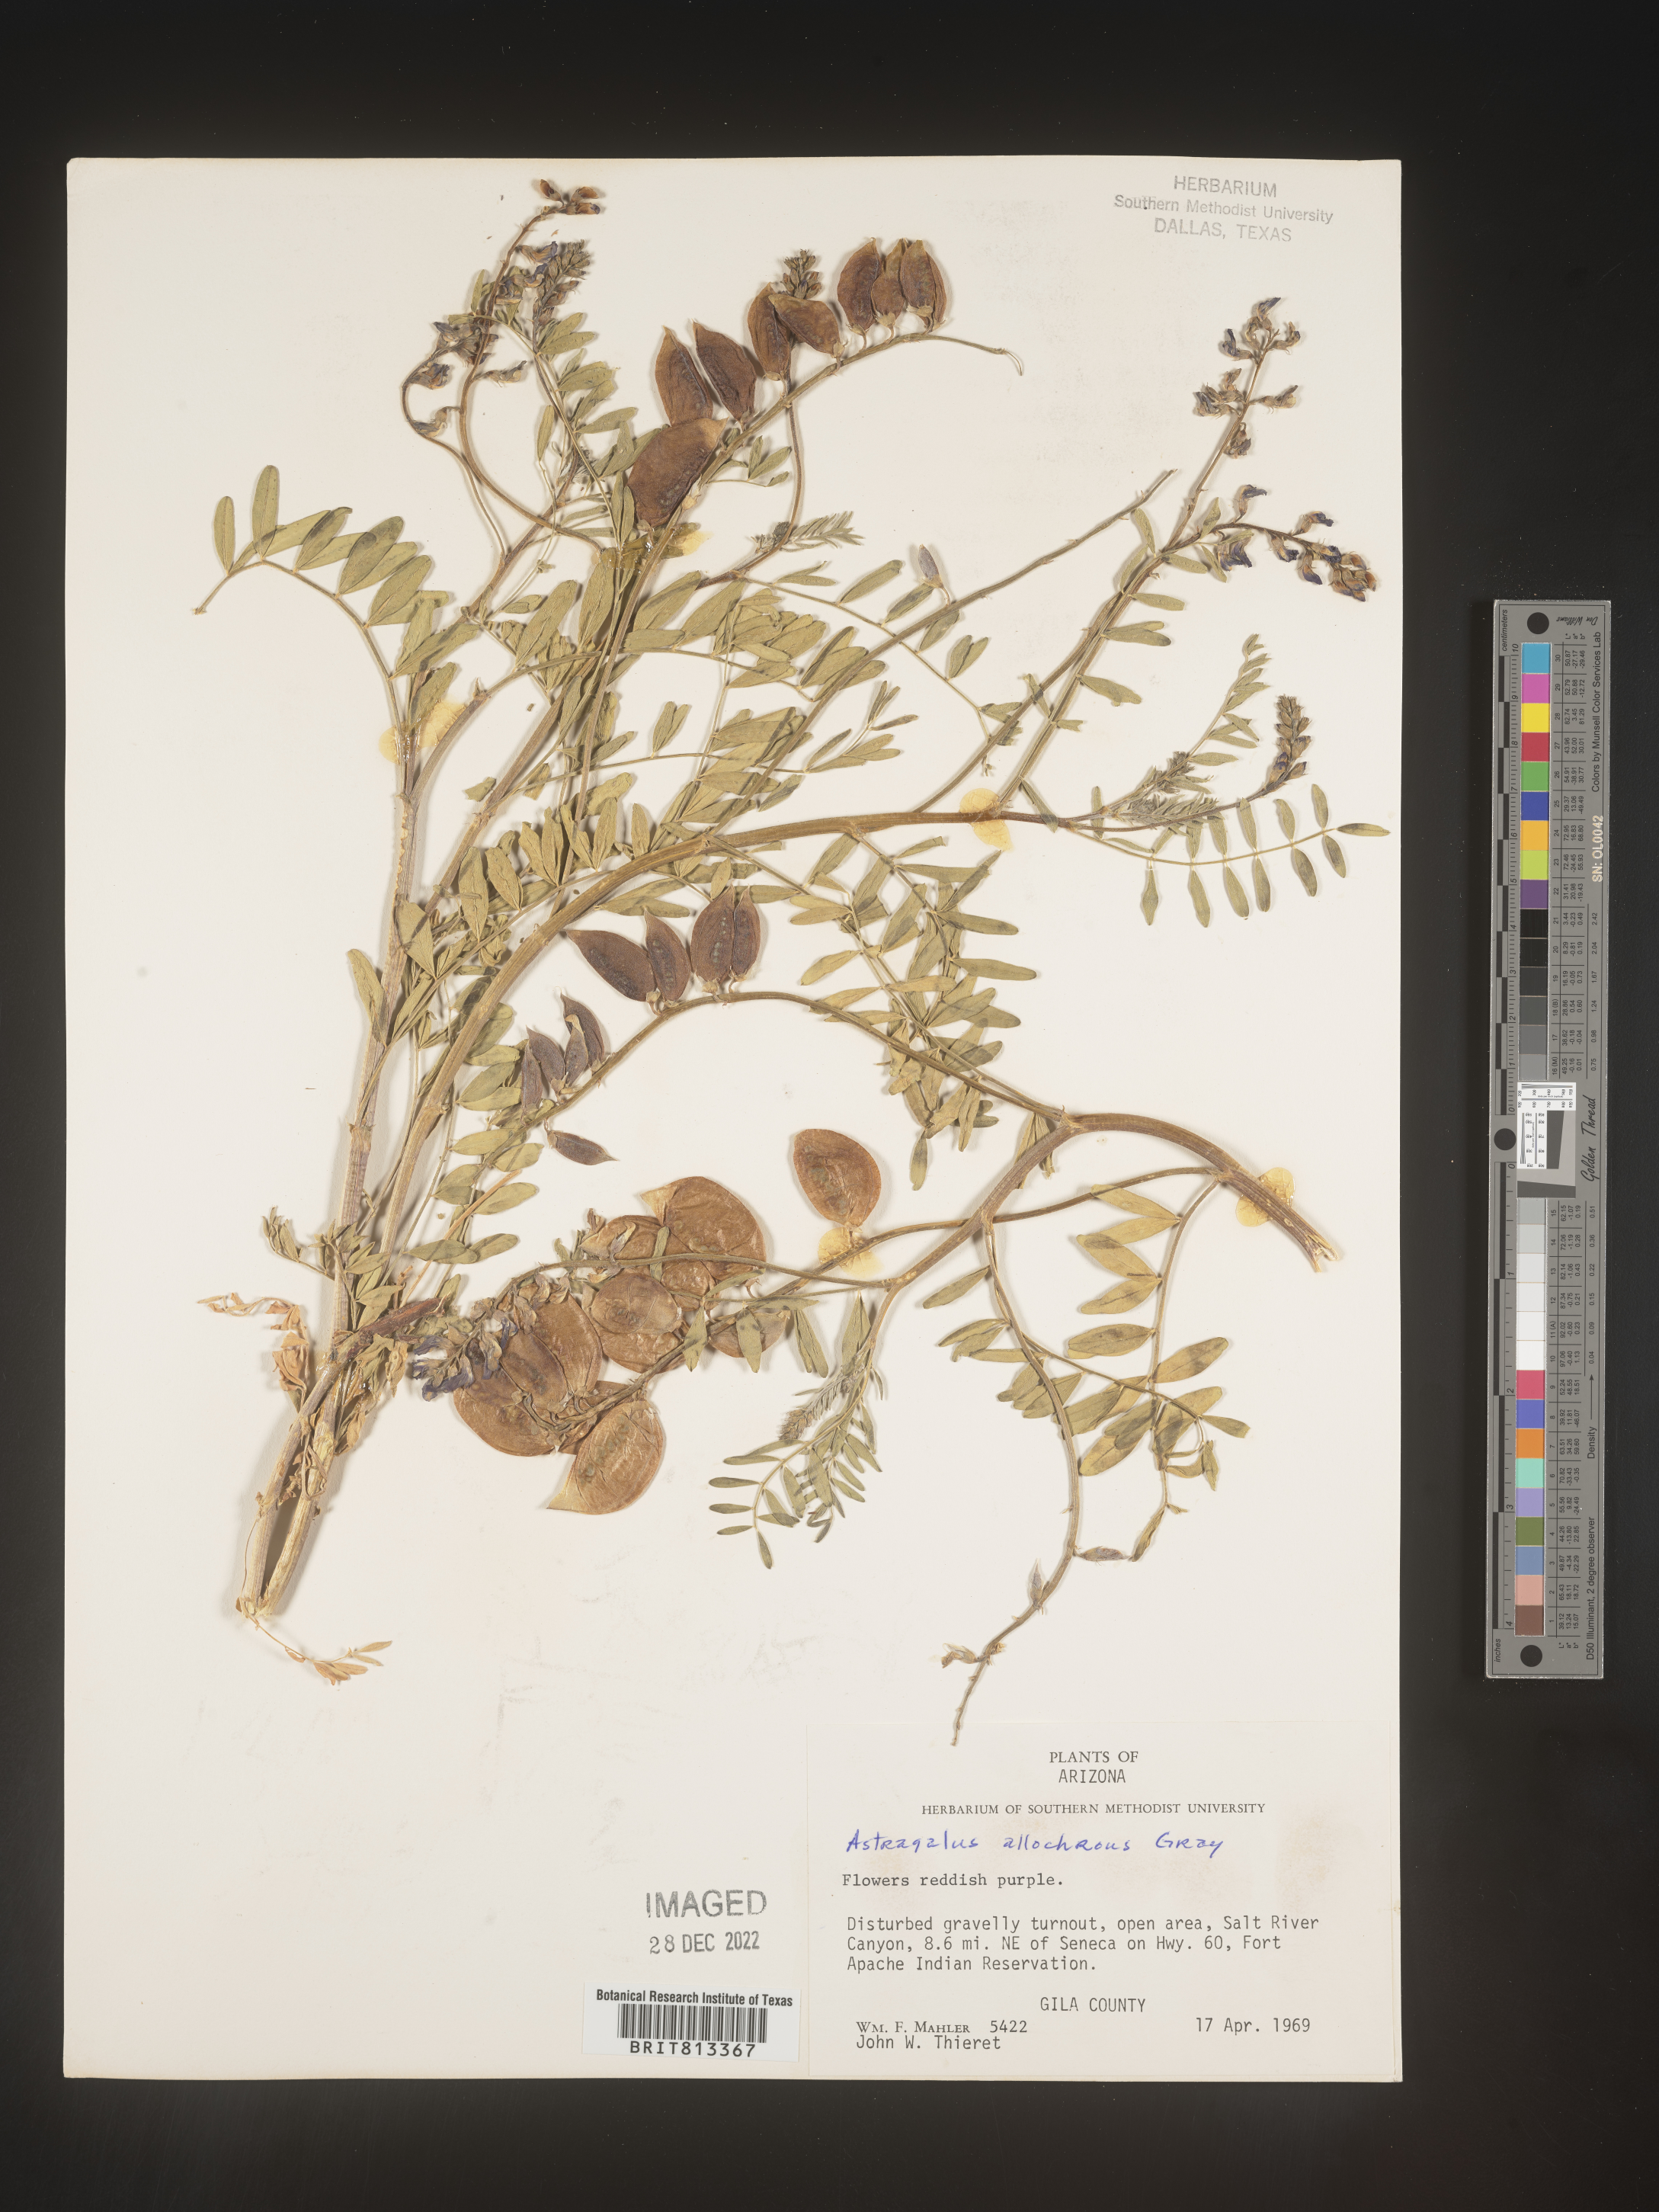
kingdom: Plantae
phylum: Tracheophyta
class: Magnoliopsida
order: Fabales
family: Fabaceae
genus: Astragalus
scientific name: Astragalus
